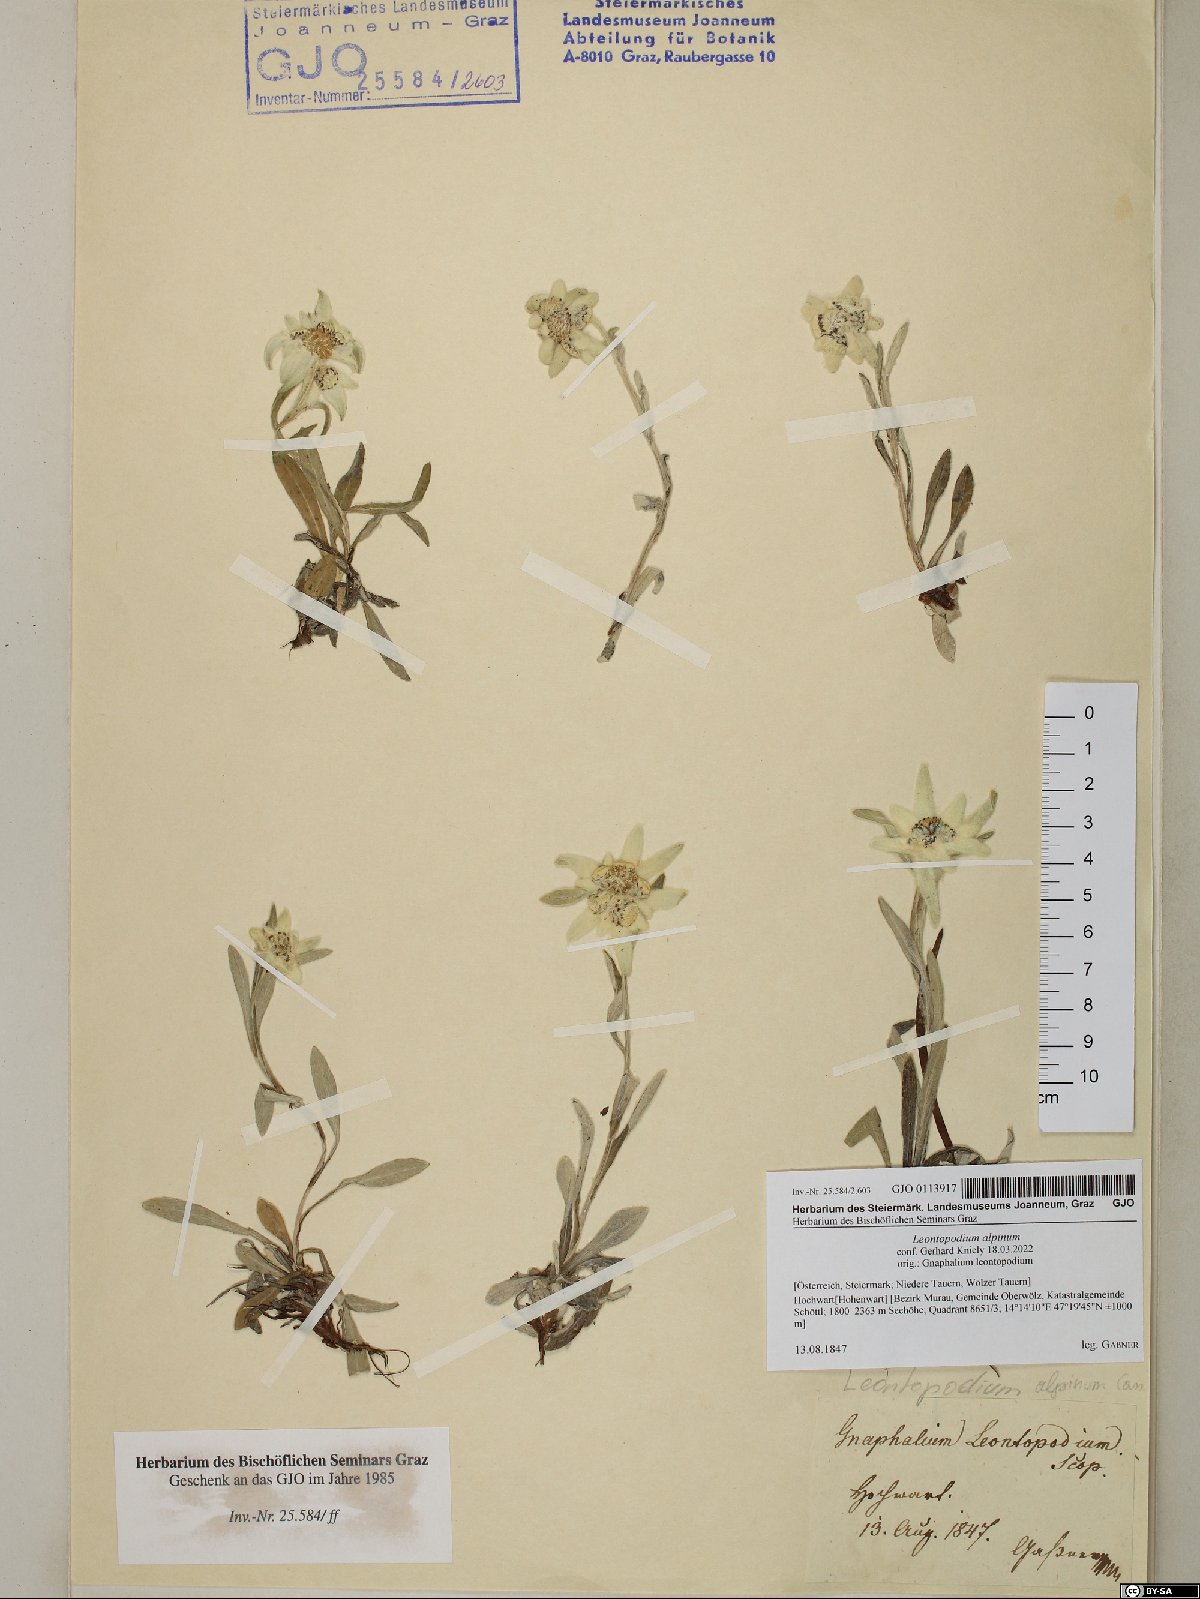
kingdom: Plantae
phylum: Tracheophyta
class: Magnoliopsida
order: Asterales
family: Asteraceae
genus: Leontopodium
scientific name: Leontopodium nivale
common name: Edelweiss
